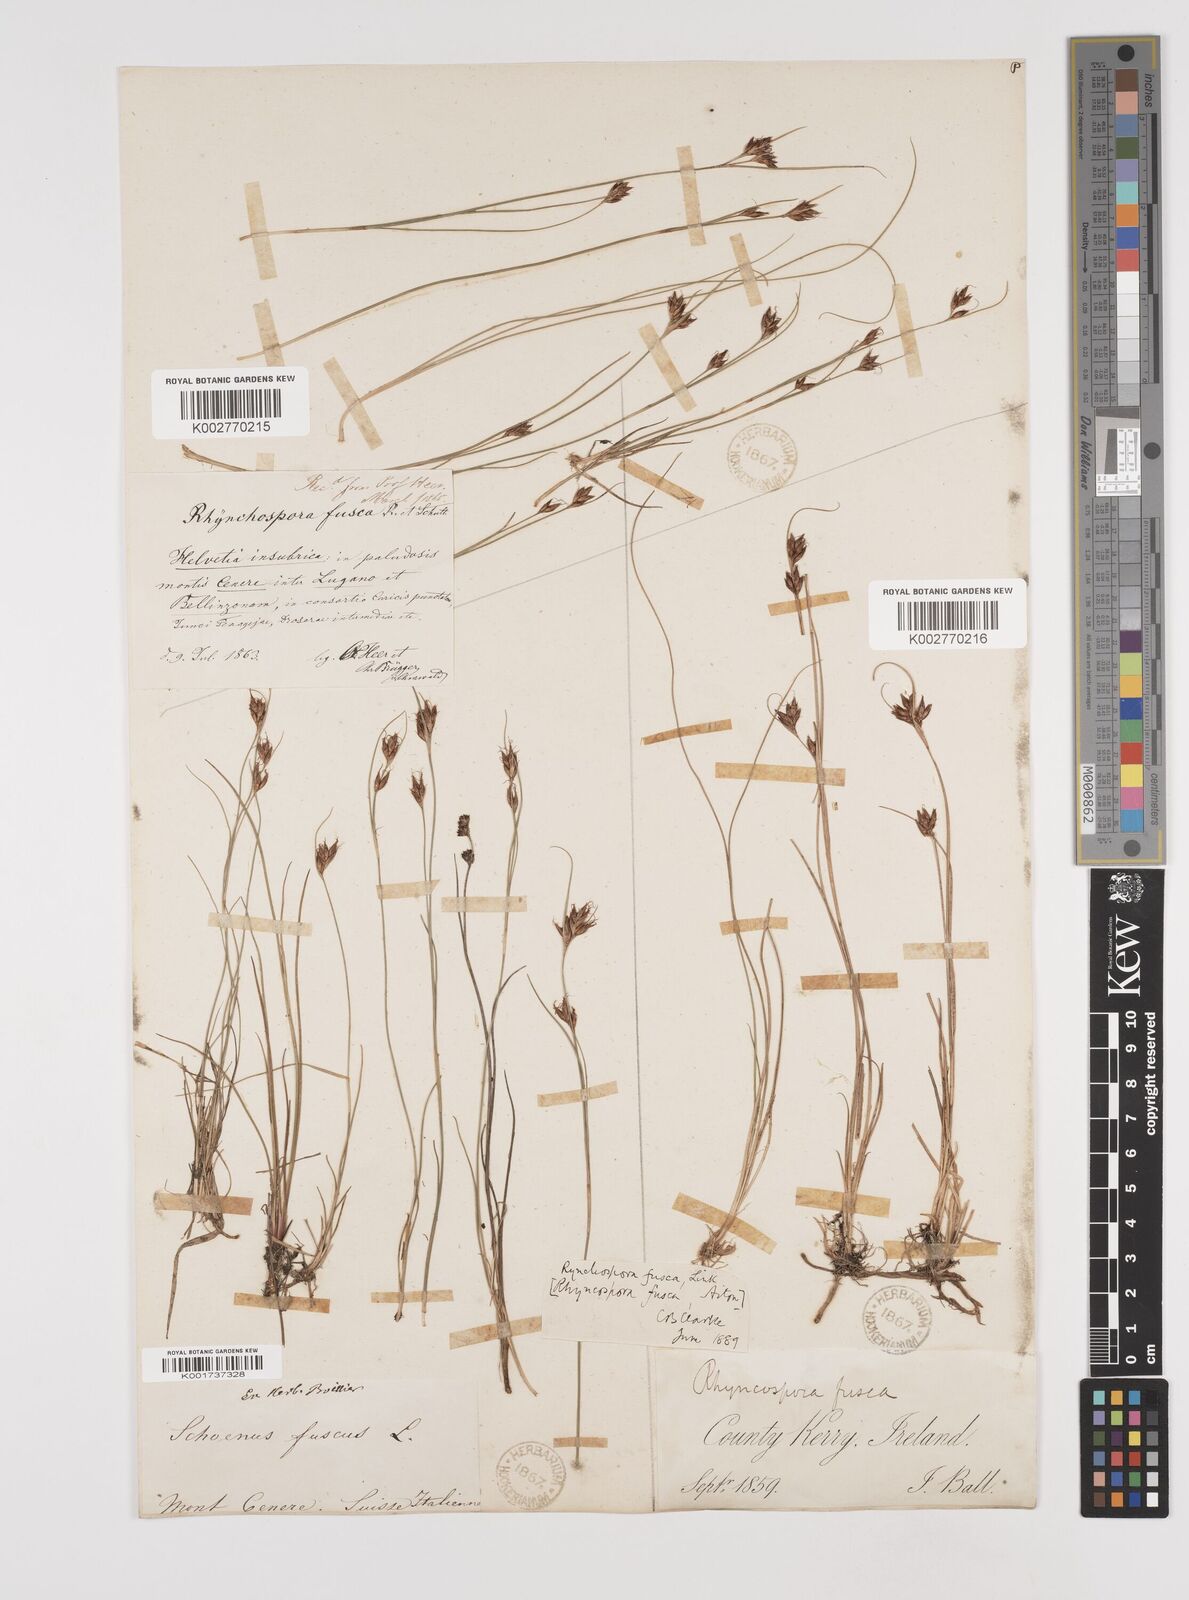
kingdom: Plantae
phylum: Tracheophyta
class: Liliopsida
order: Poales
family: Cyperaceae
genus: Rhynchospora
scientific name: Rhynchospora fusca
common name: Brown beak-sedge
